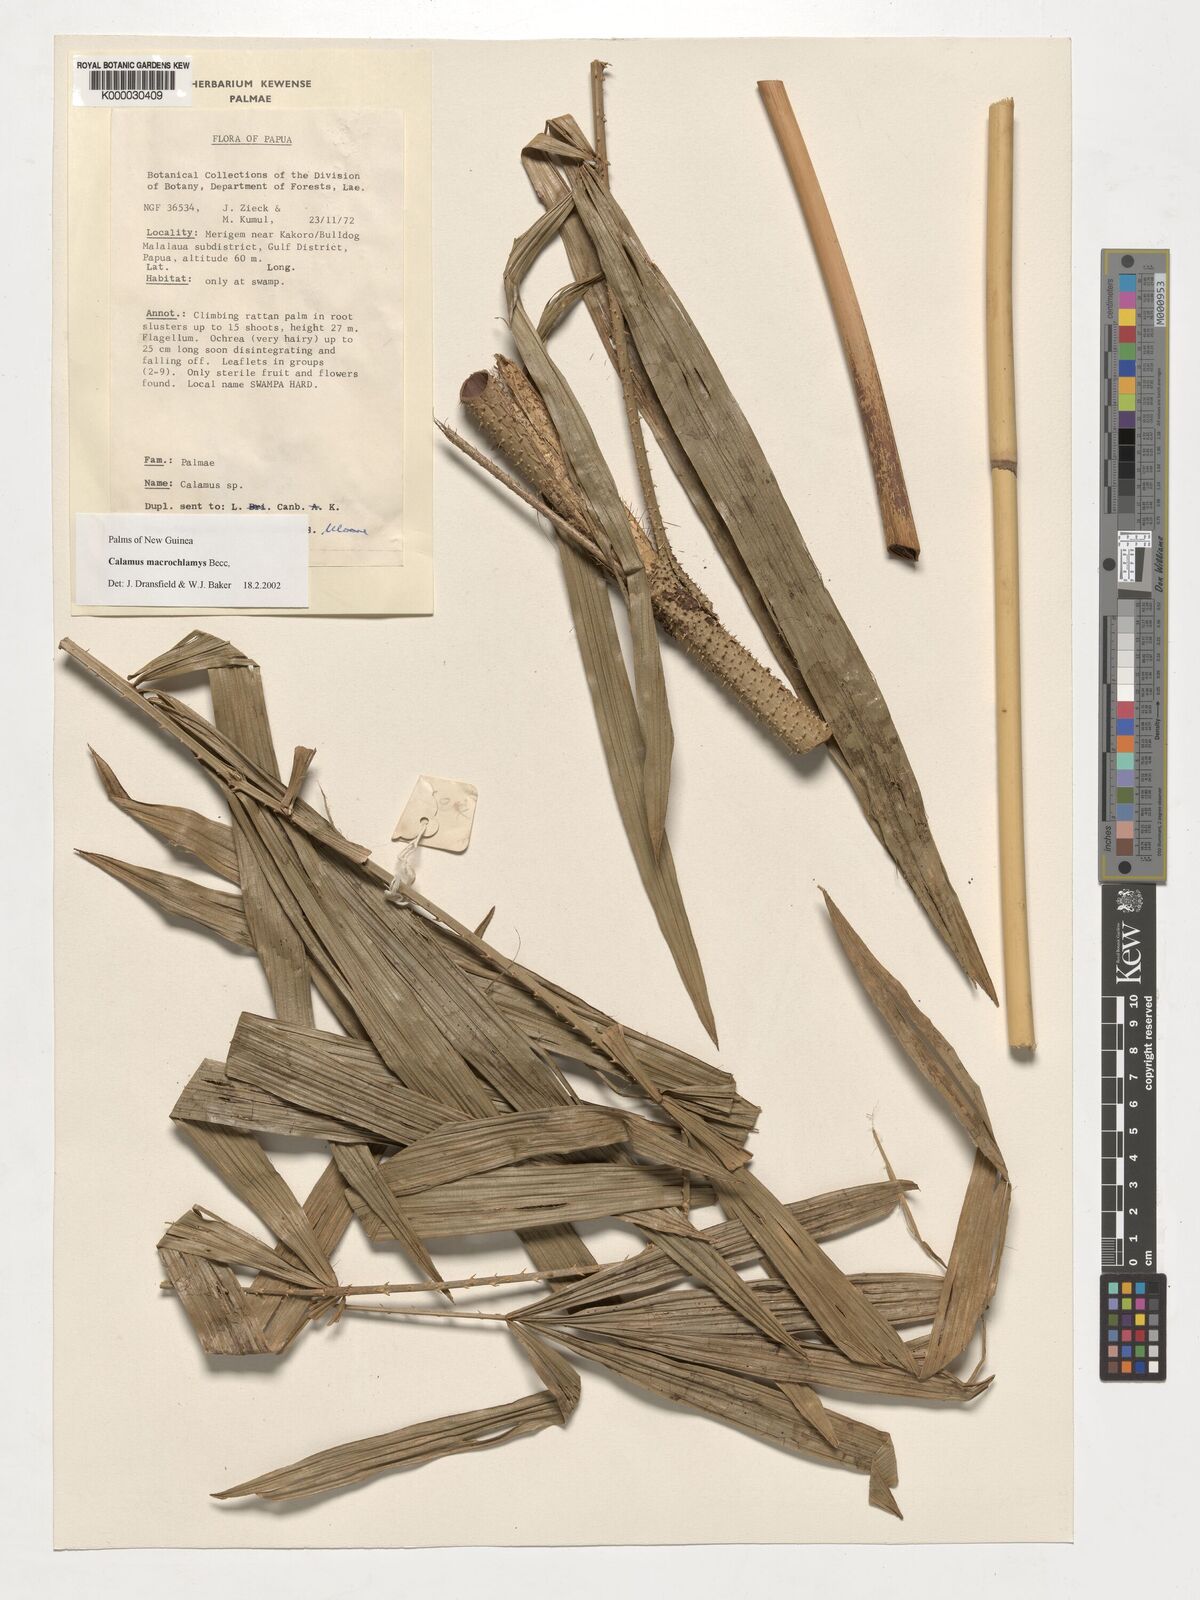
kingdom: Plantae
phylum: Tracheophyta
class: Liliopsida
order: Arecales
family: Arecaceae
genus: Calamus
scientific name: Calamus macrochlamys
